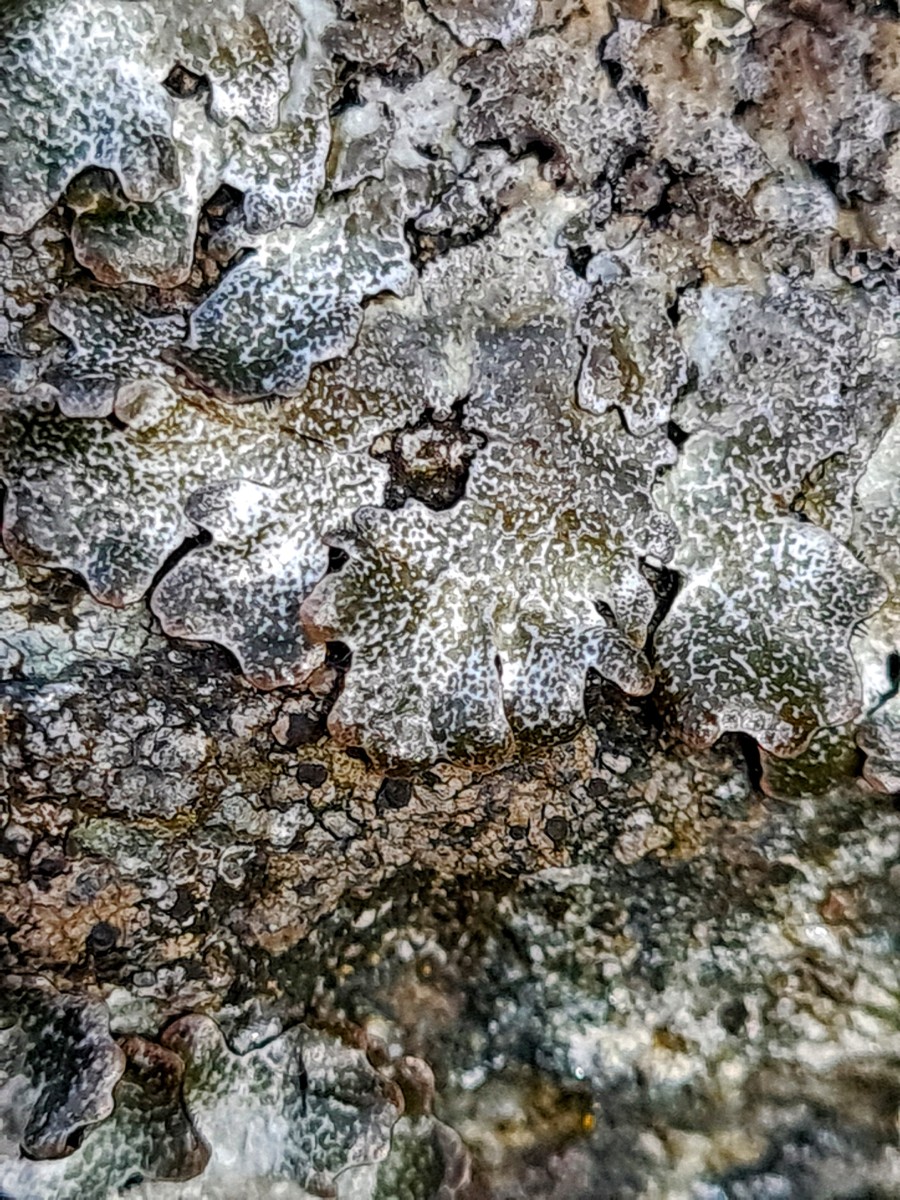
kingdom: Fungi
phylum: Ascomycota
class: Lecanoromycetes
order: Lecanorales
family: Parmeliaceae
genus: Parmelia
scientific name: Parmelia saxatilis
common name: farve-skållav
